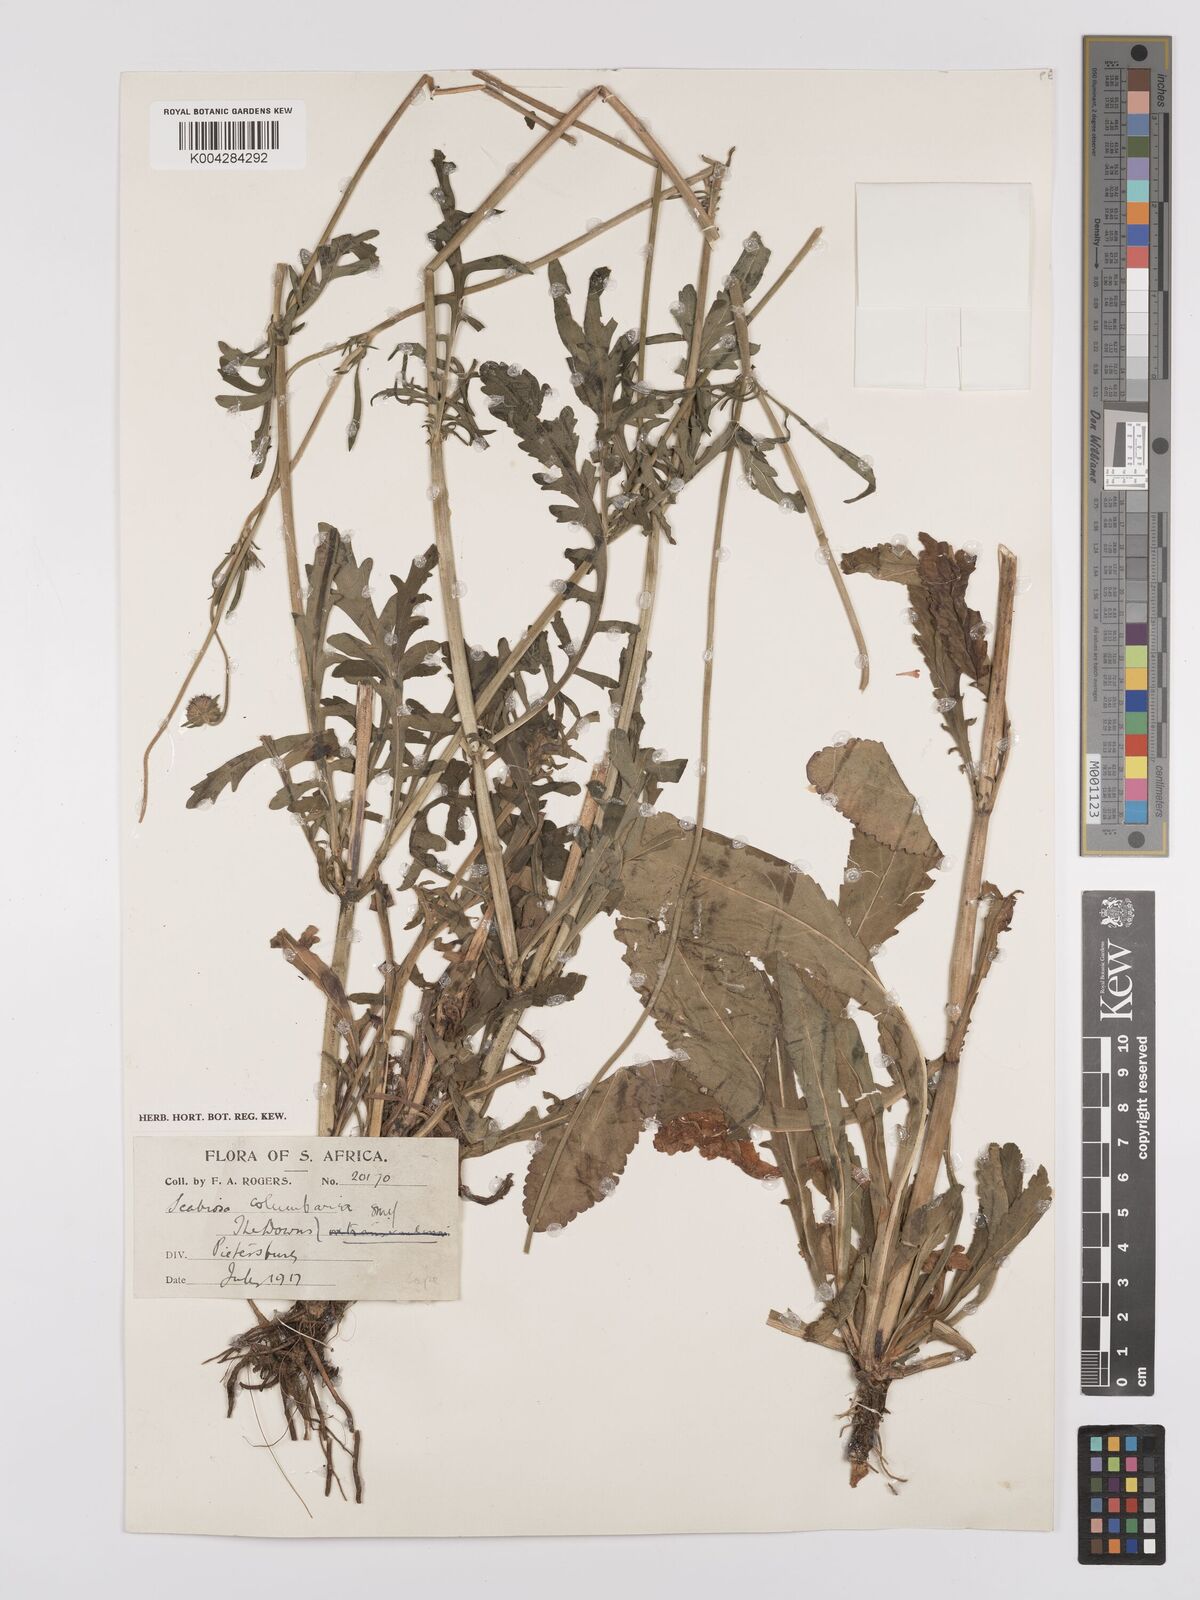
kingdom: Plantae
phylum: Tracheophyta
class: Magnoliopsida
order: Dipsacales
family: Caprifoliaceae
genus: Scabiosa
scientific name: Scabiosa columbaria
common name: Small scabious
